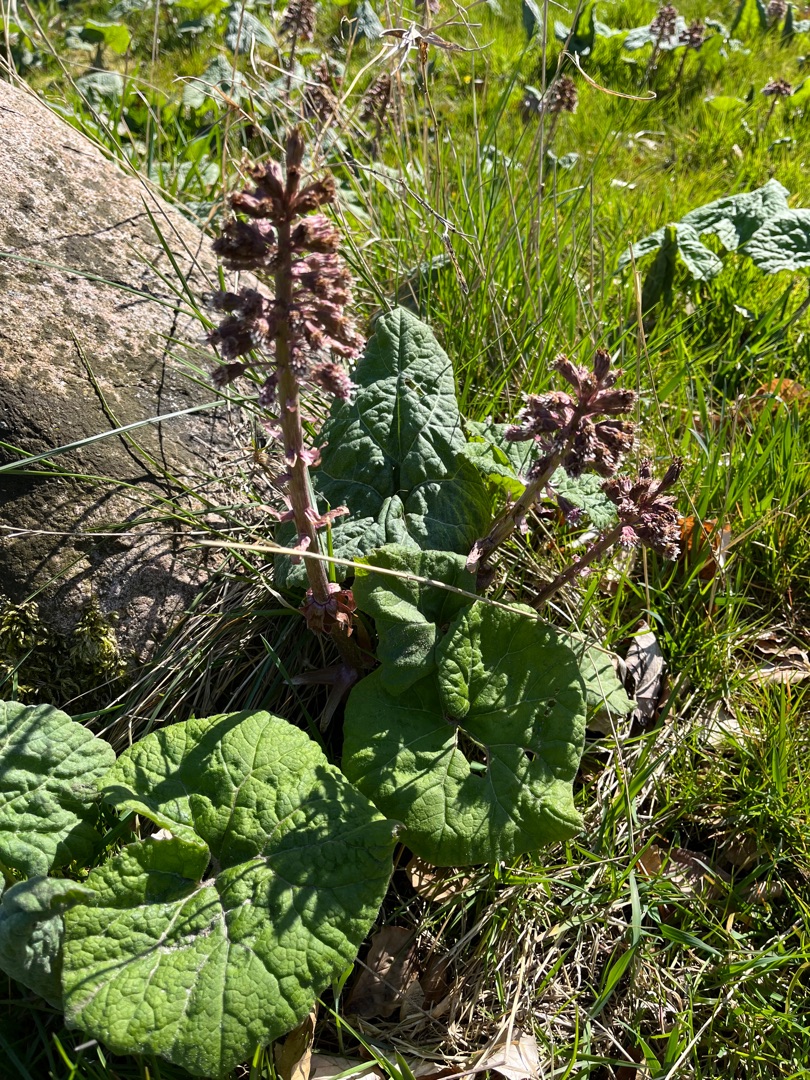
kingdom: Plantae
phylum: Tracheophyta
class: Magnoliopsida
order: Asterales
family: Asteraceae
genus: Petasites
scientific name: Petasites hybridus
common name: Rød hestehov
